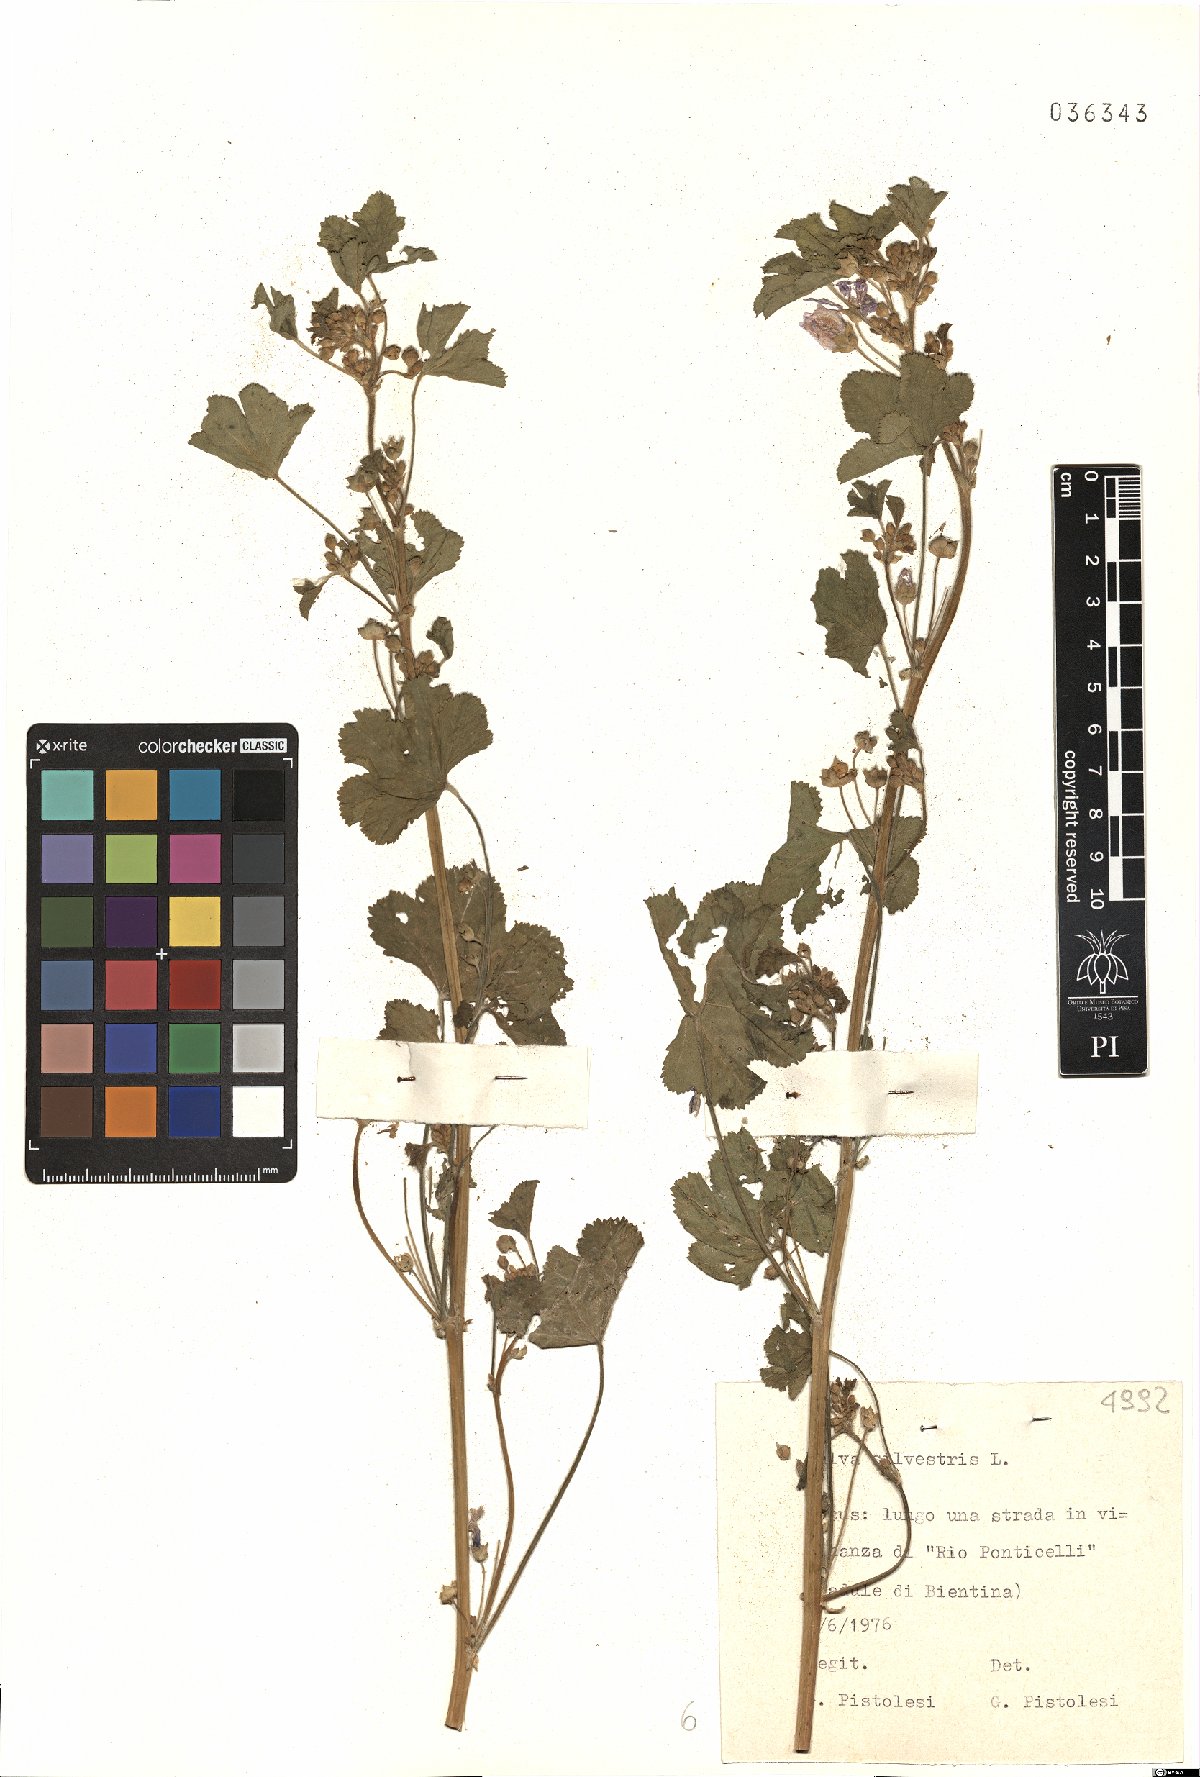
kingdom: Plantae
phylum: Tracheophyta
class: Magnoliopsida
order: Malvales
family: Malvaceae
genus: Malva
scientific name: Malva sylvestris
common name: Common mallow
